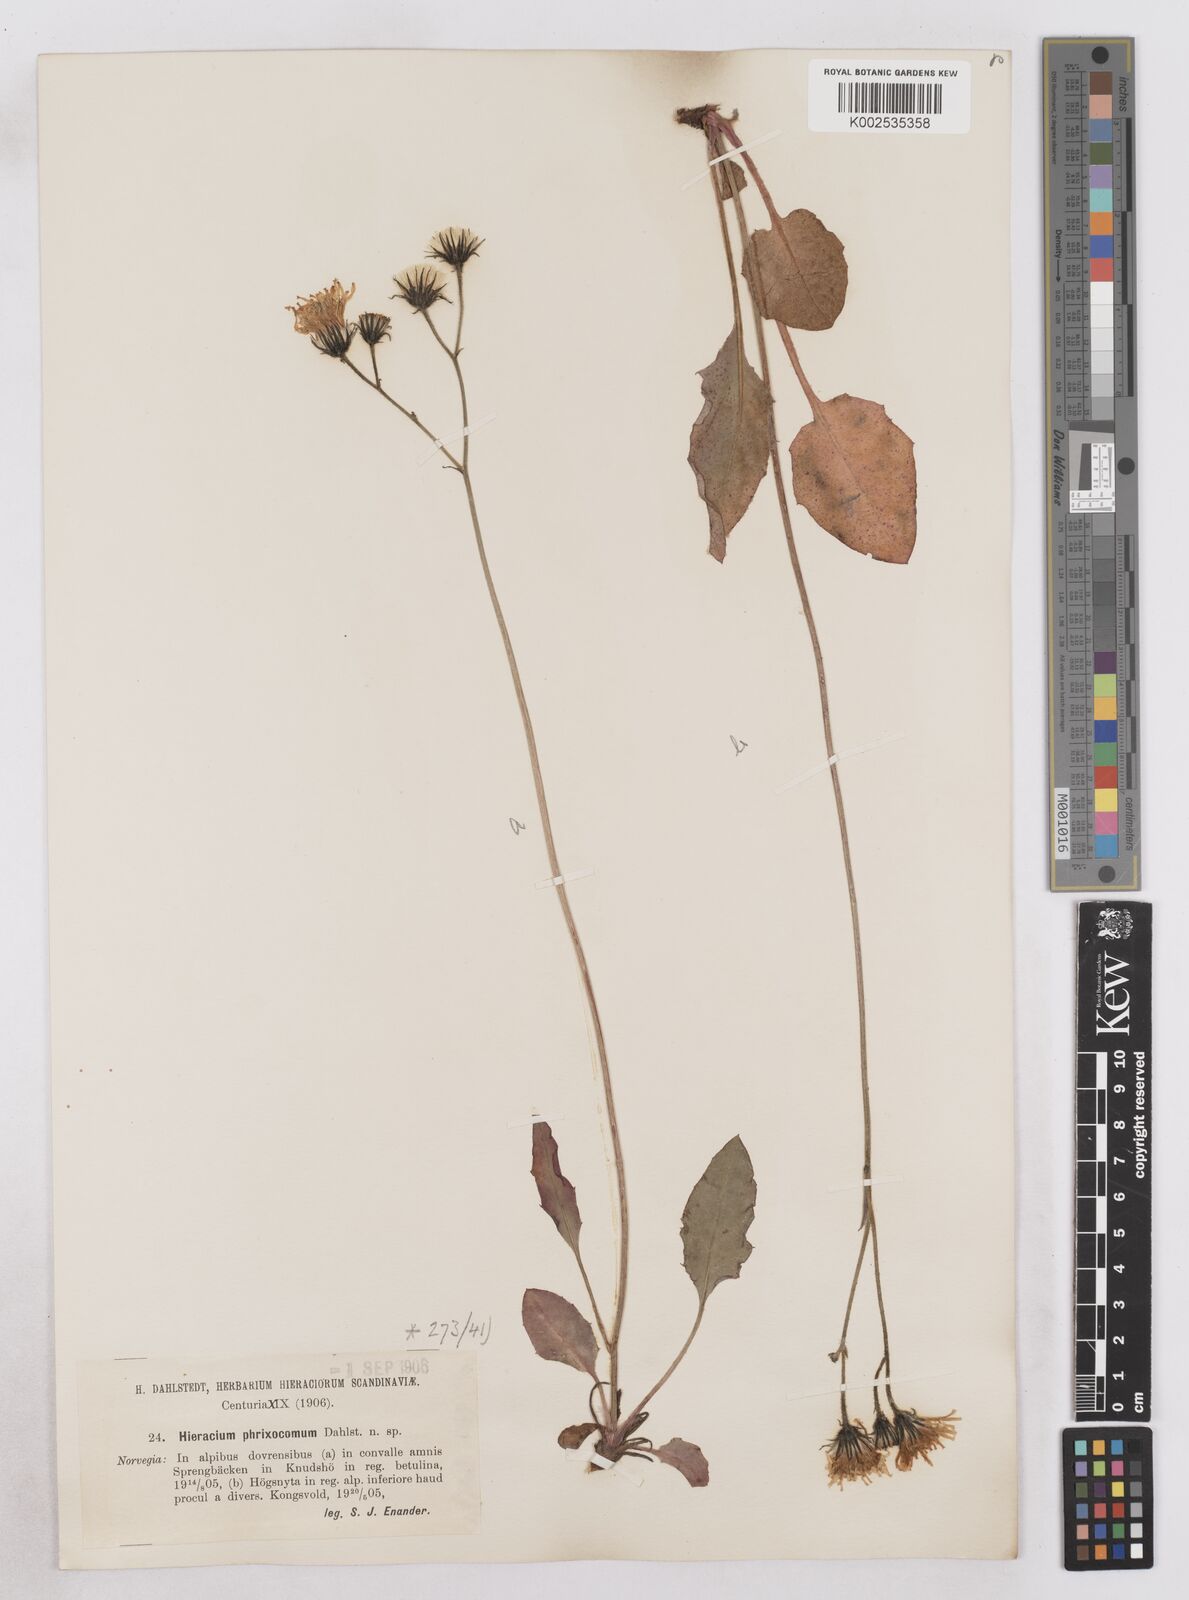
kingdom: Plantae
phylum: Tracheophyta
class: Magnoliopsida
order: Asterales
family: Asteraceae
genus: Hieracium
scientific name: Hieracium conspurcans
